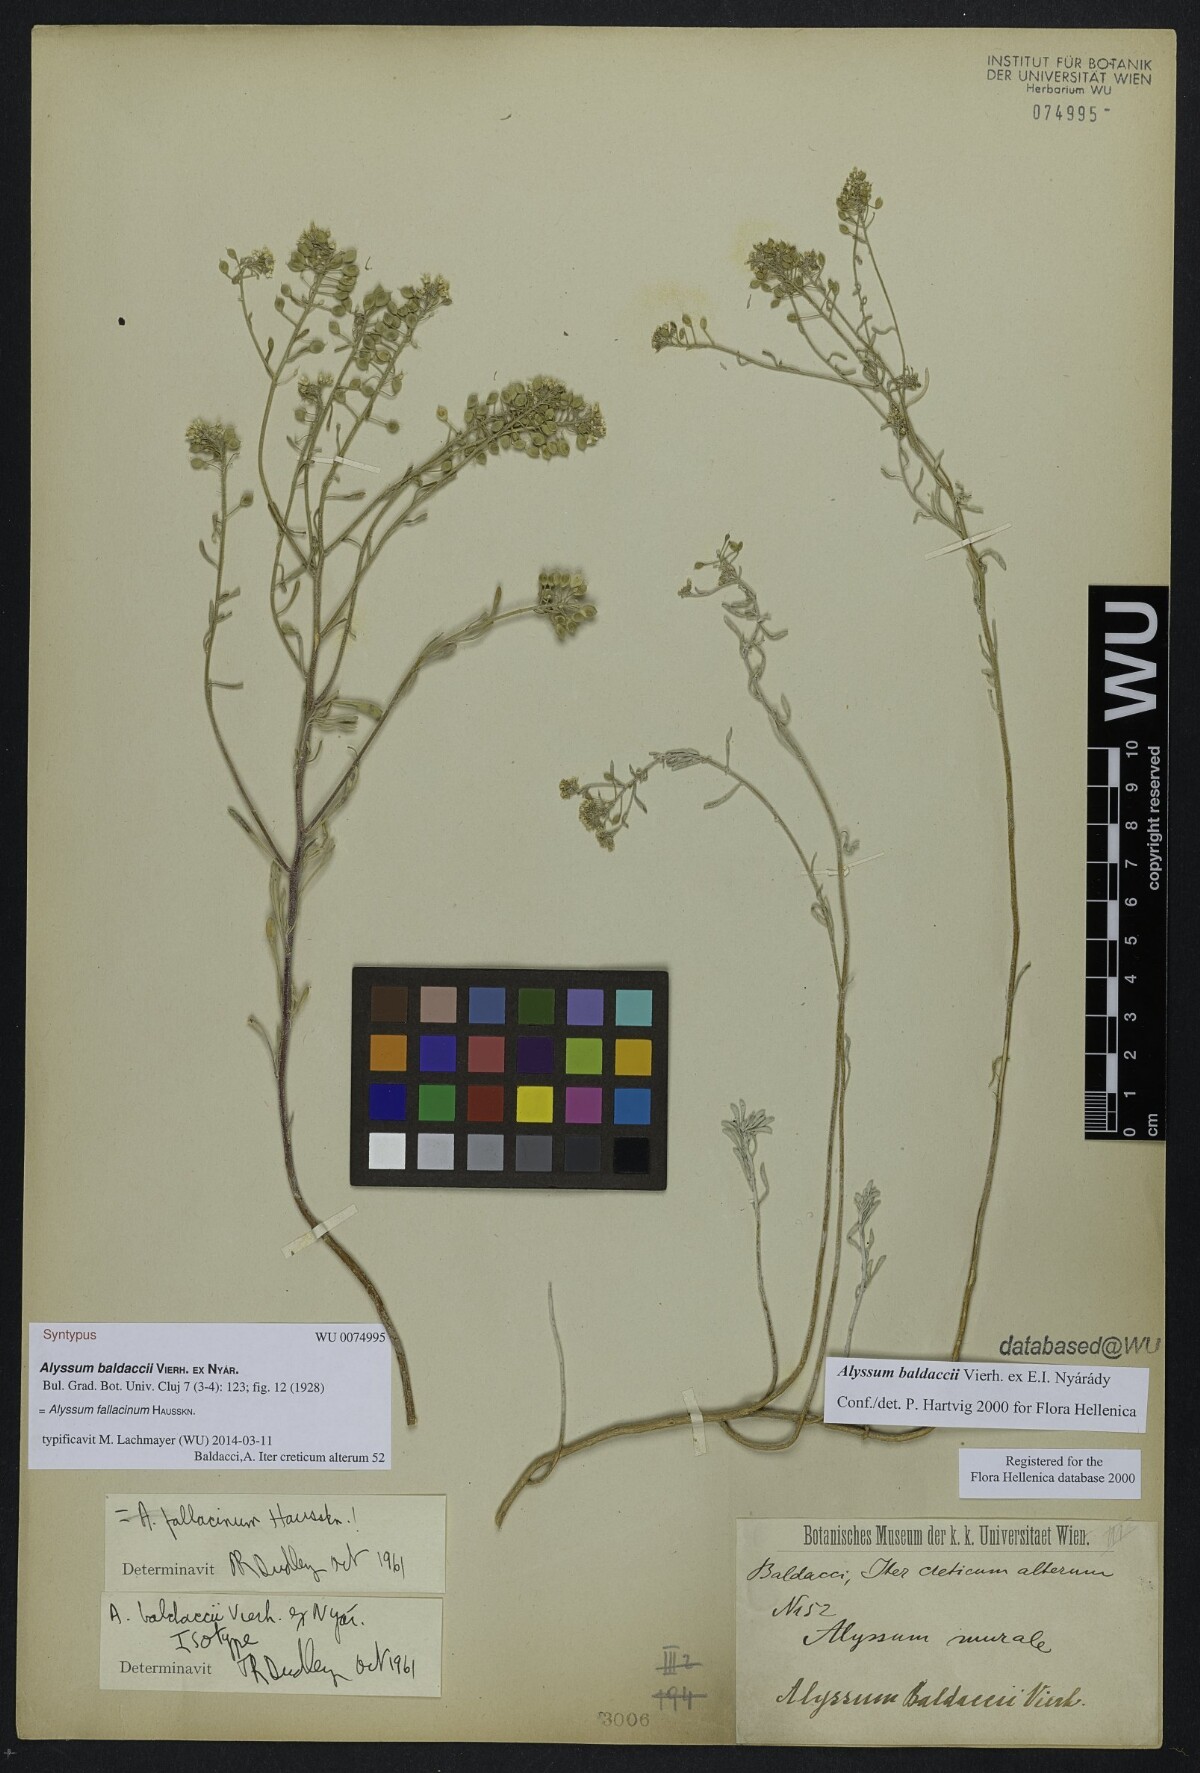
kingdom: Plantae
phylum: Tracheophyta
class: Magnoliopsida
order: Brassicales
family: Brassicaceae
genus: Odontarrhena
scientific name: Odontarrhena fallacina
